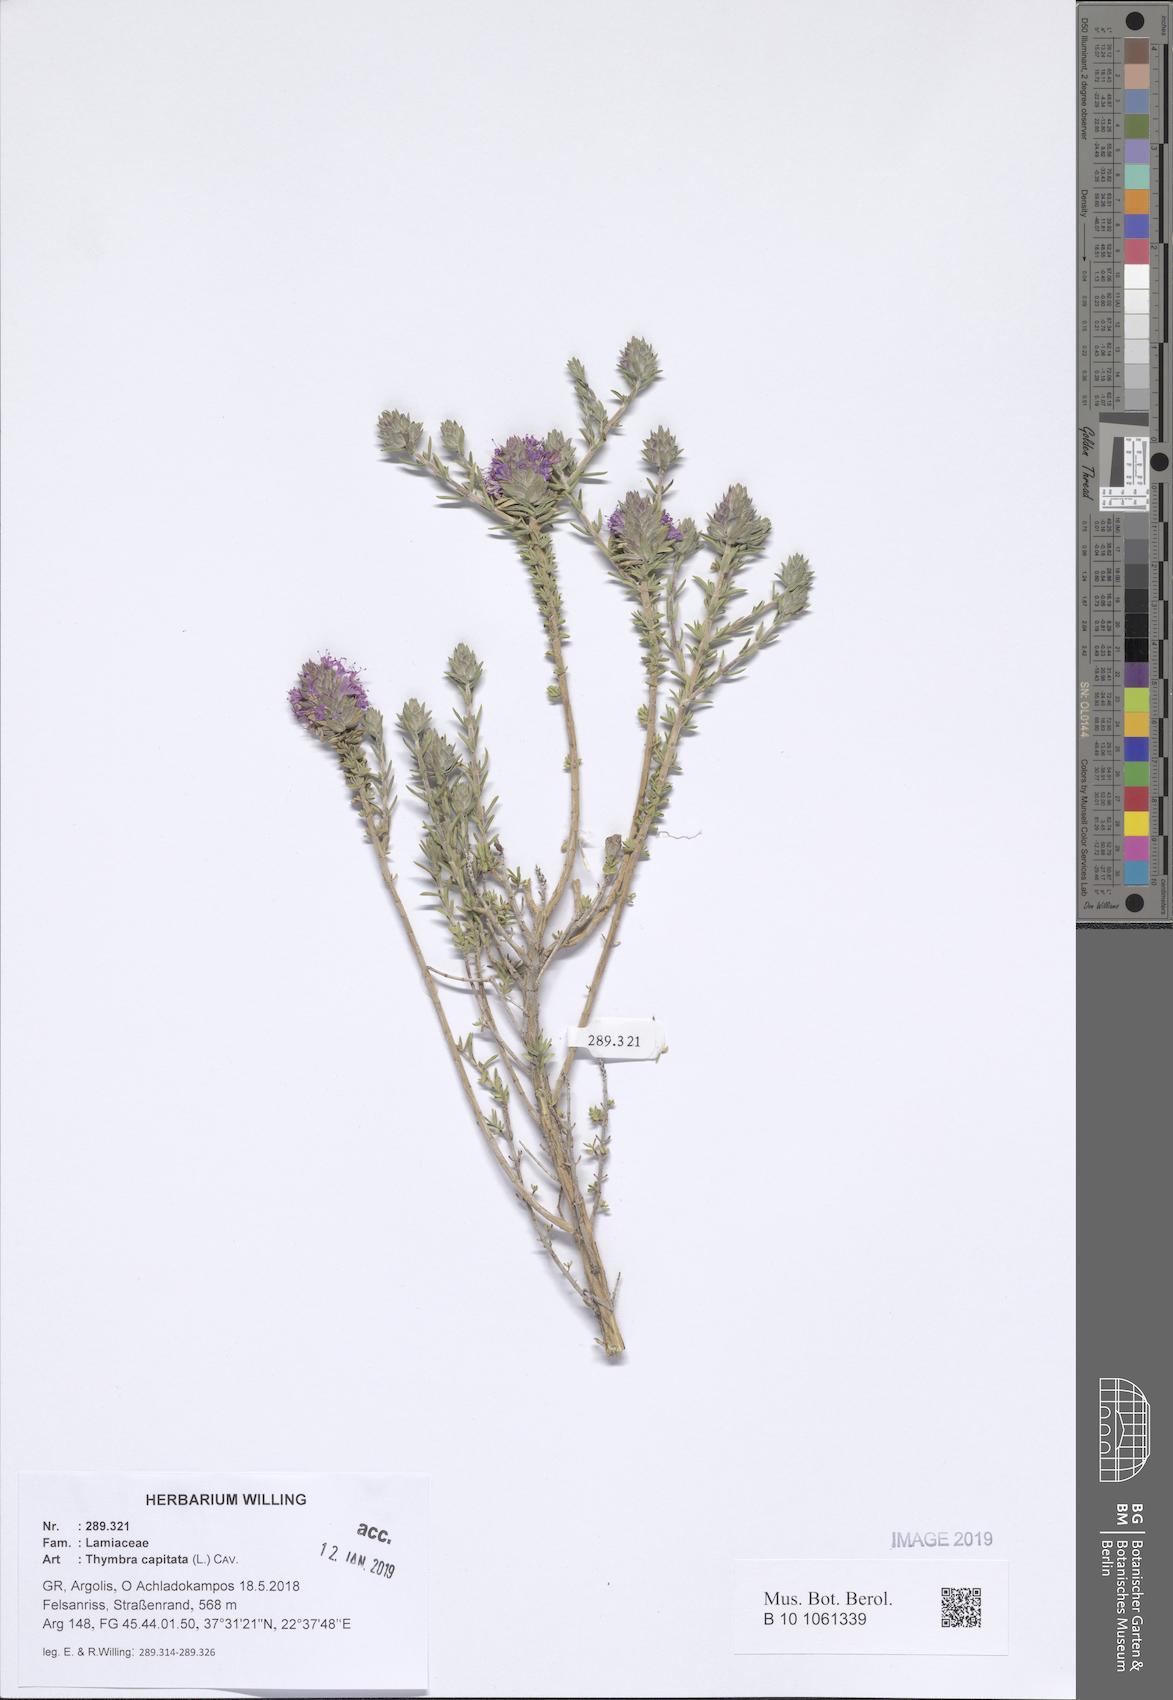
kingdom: Plantae
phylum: Tracheophyta
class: Magnoliopsida
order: Lamiales
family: Lamiaceae
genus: Thymbra
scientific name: Thymbra capitata
